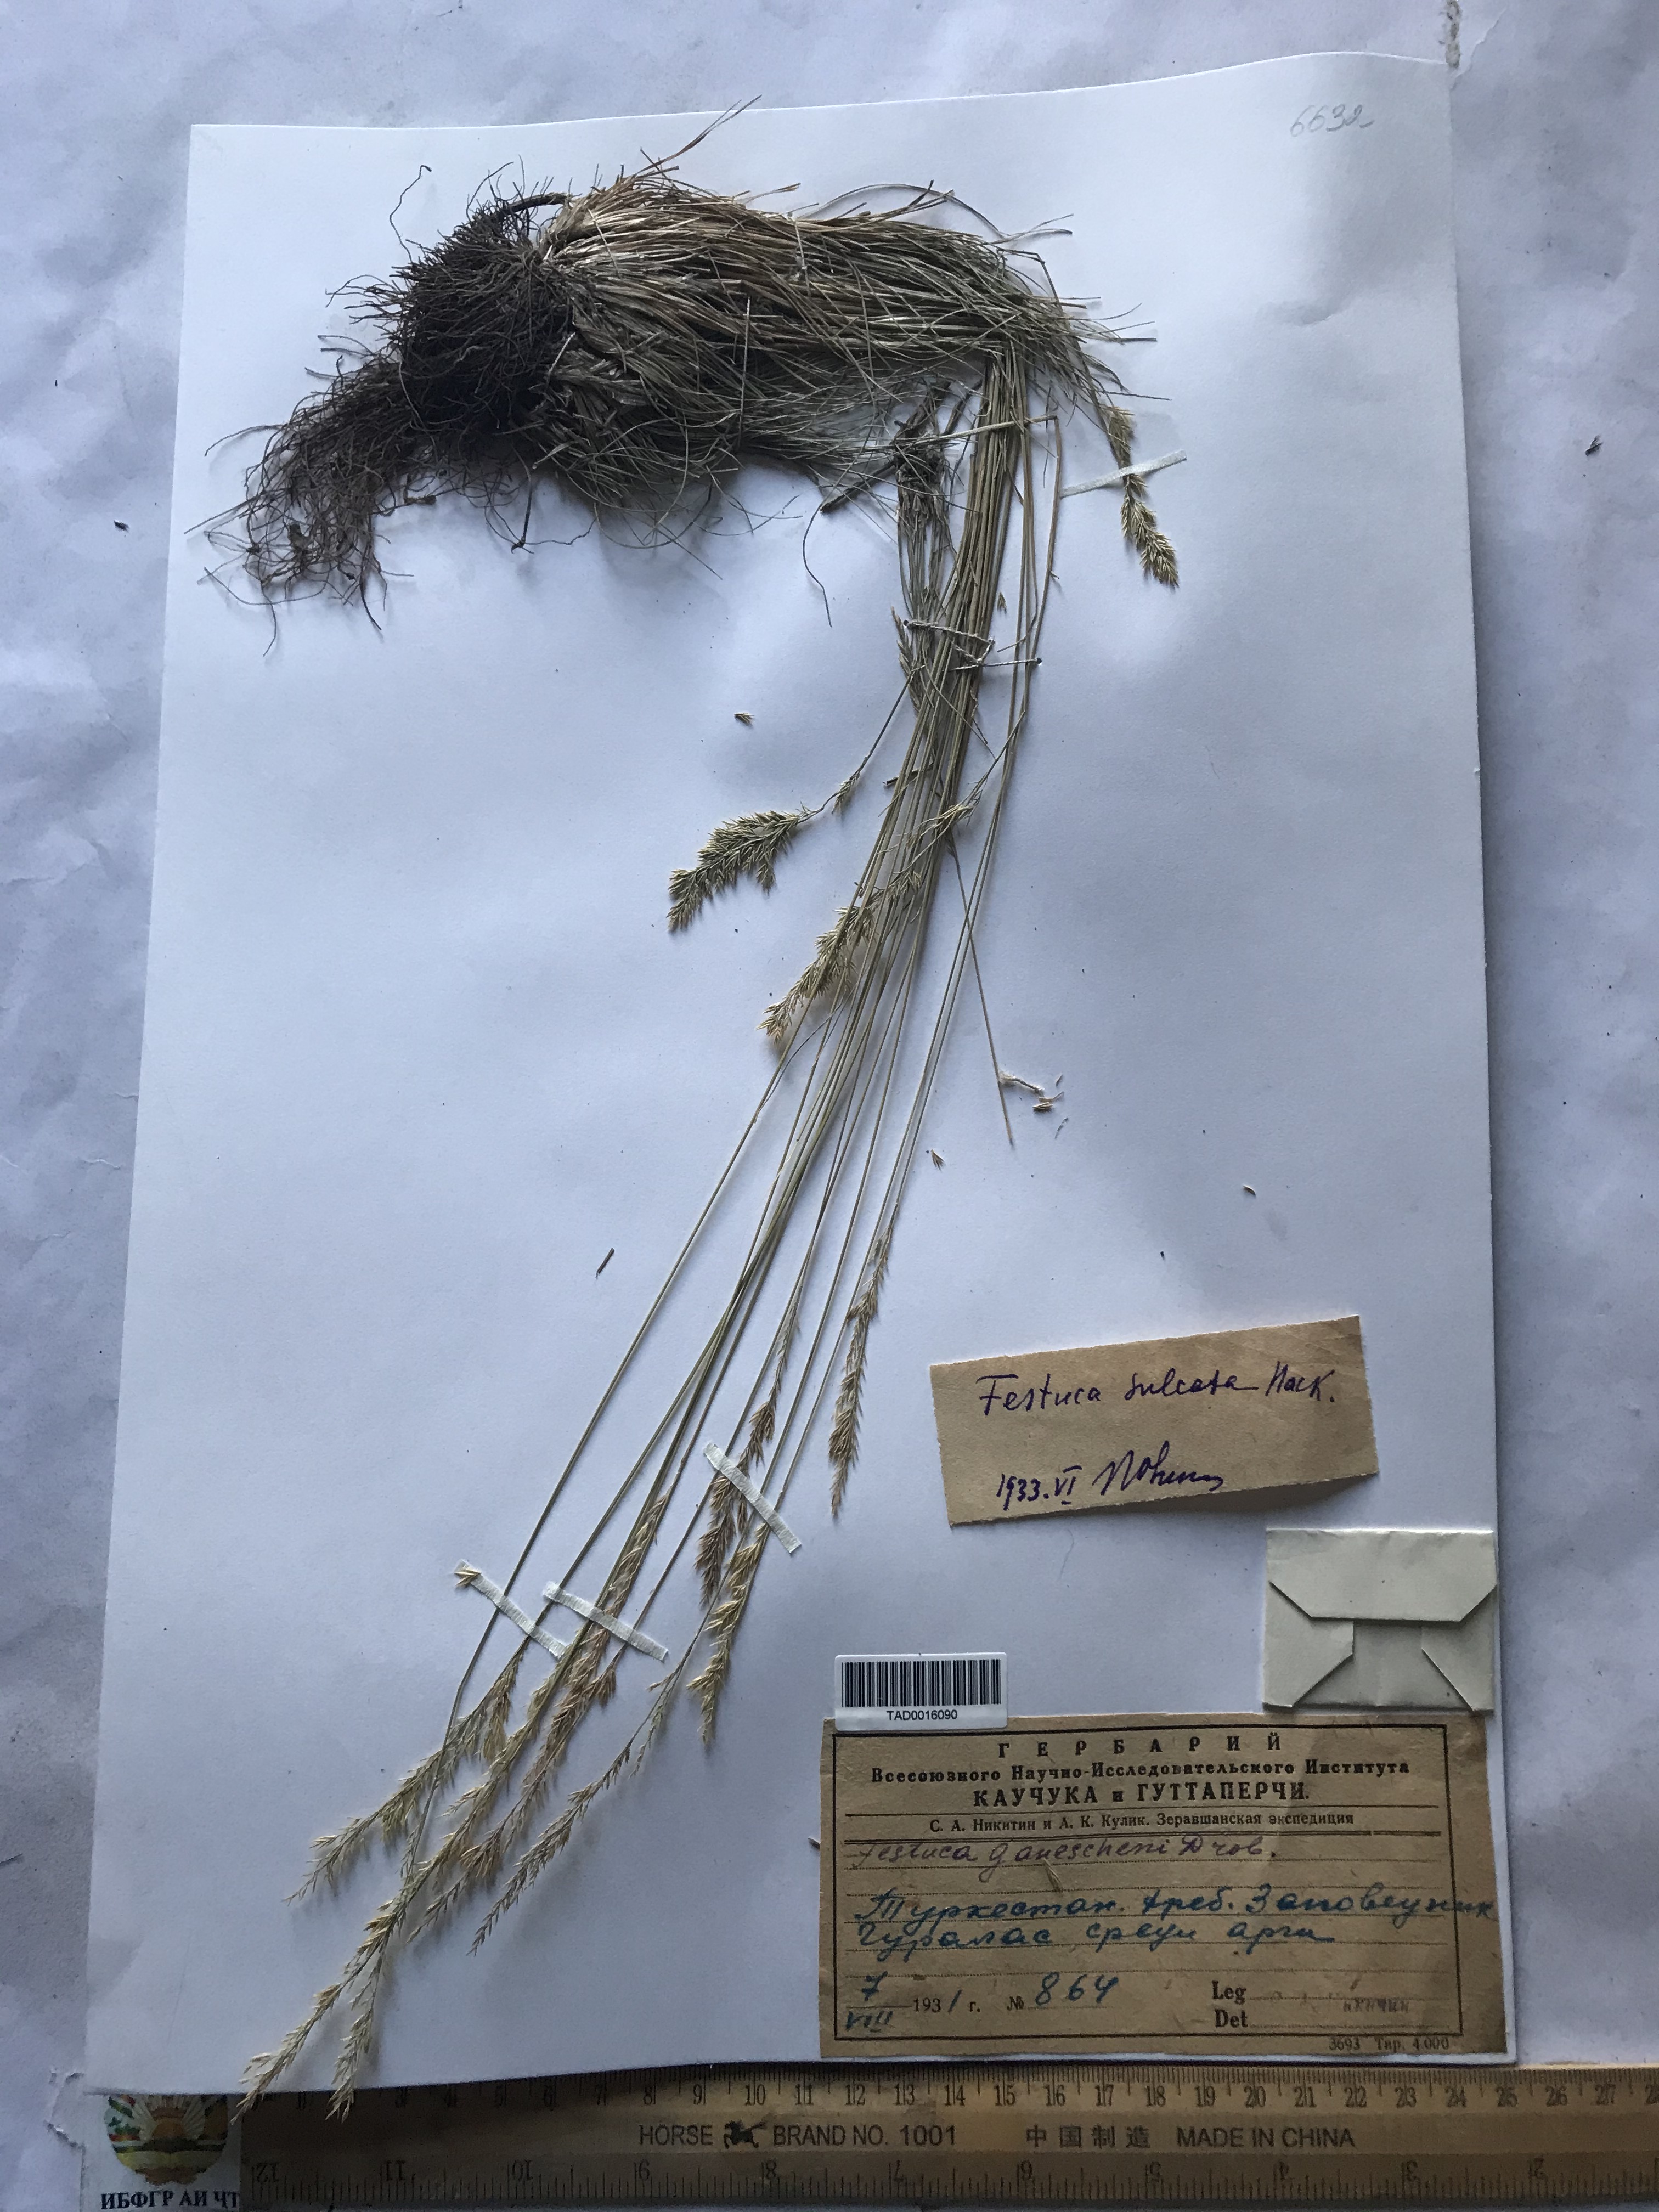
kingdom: Plantae
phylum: Tracheophyta
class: Liliopsida
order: Poales
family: Poaceae
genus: Festuca
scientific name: Festuca sulcata
